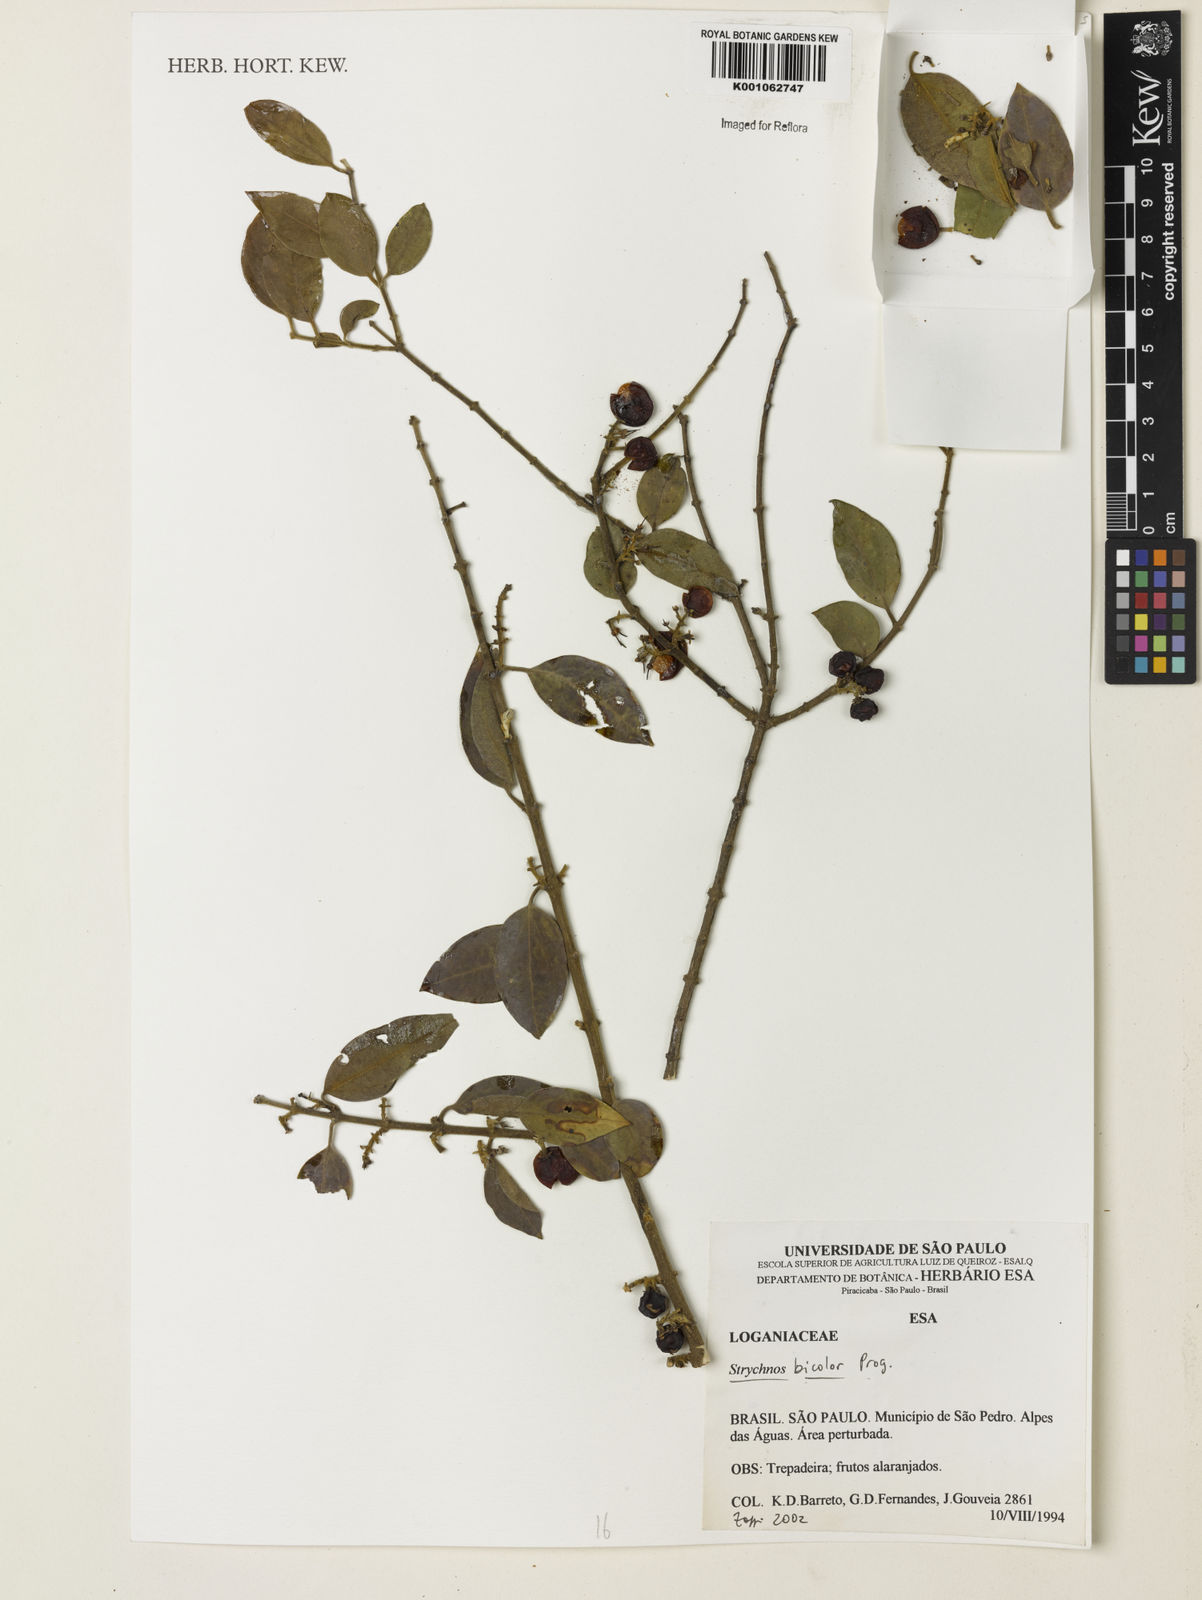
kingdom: Plantae
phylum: Tracheophyta
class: Magnoliopsida
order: Gentianales
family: Loganiaceae
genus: Strychnos
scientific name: Strychnos bicolor
